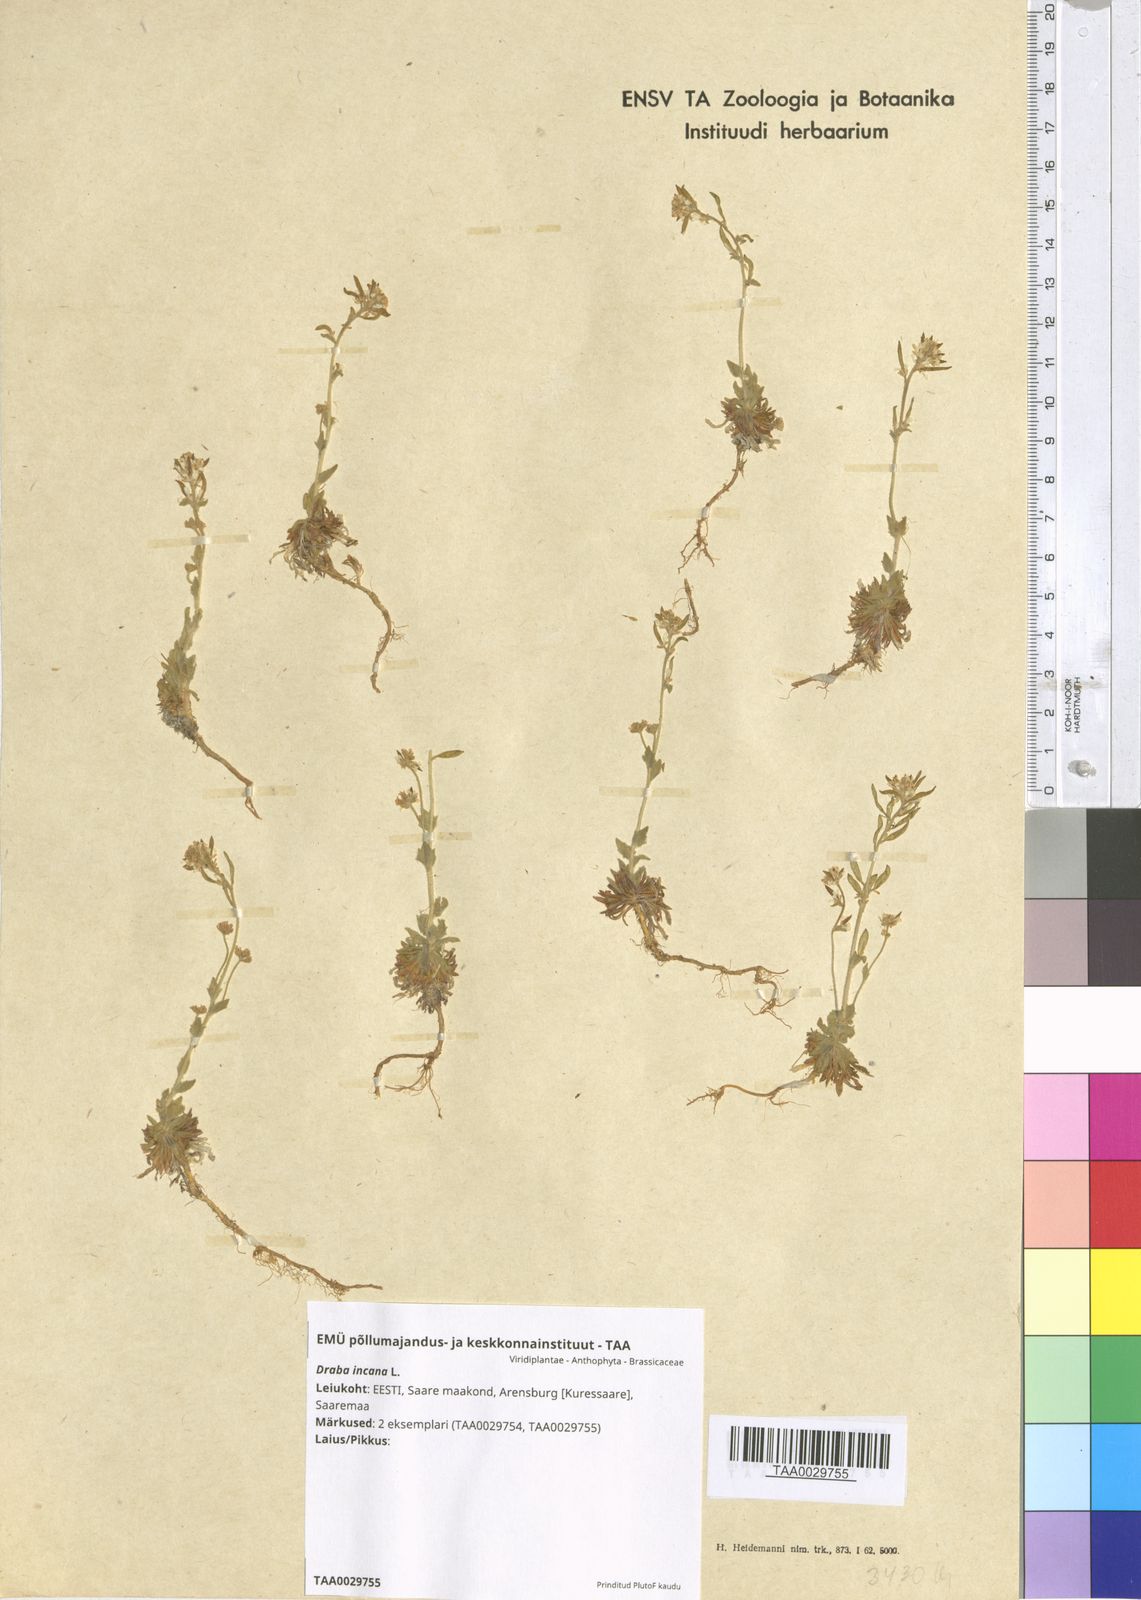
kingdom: Plantae
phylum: Tracheophyta
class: Magnoliopsida
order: Brassicales
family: Brassicaceae
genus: Draba
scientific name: Draba incana
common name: Hoary whitlow-grass
